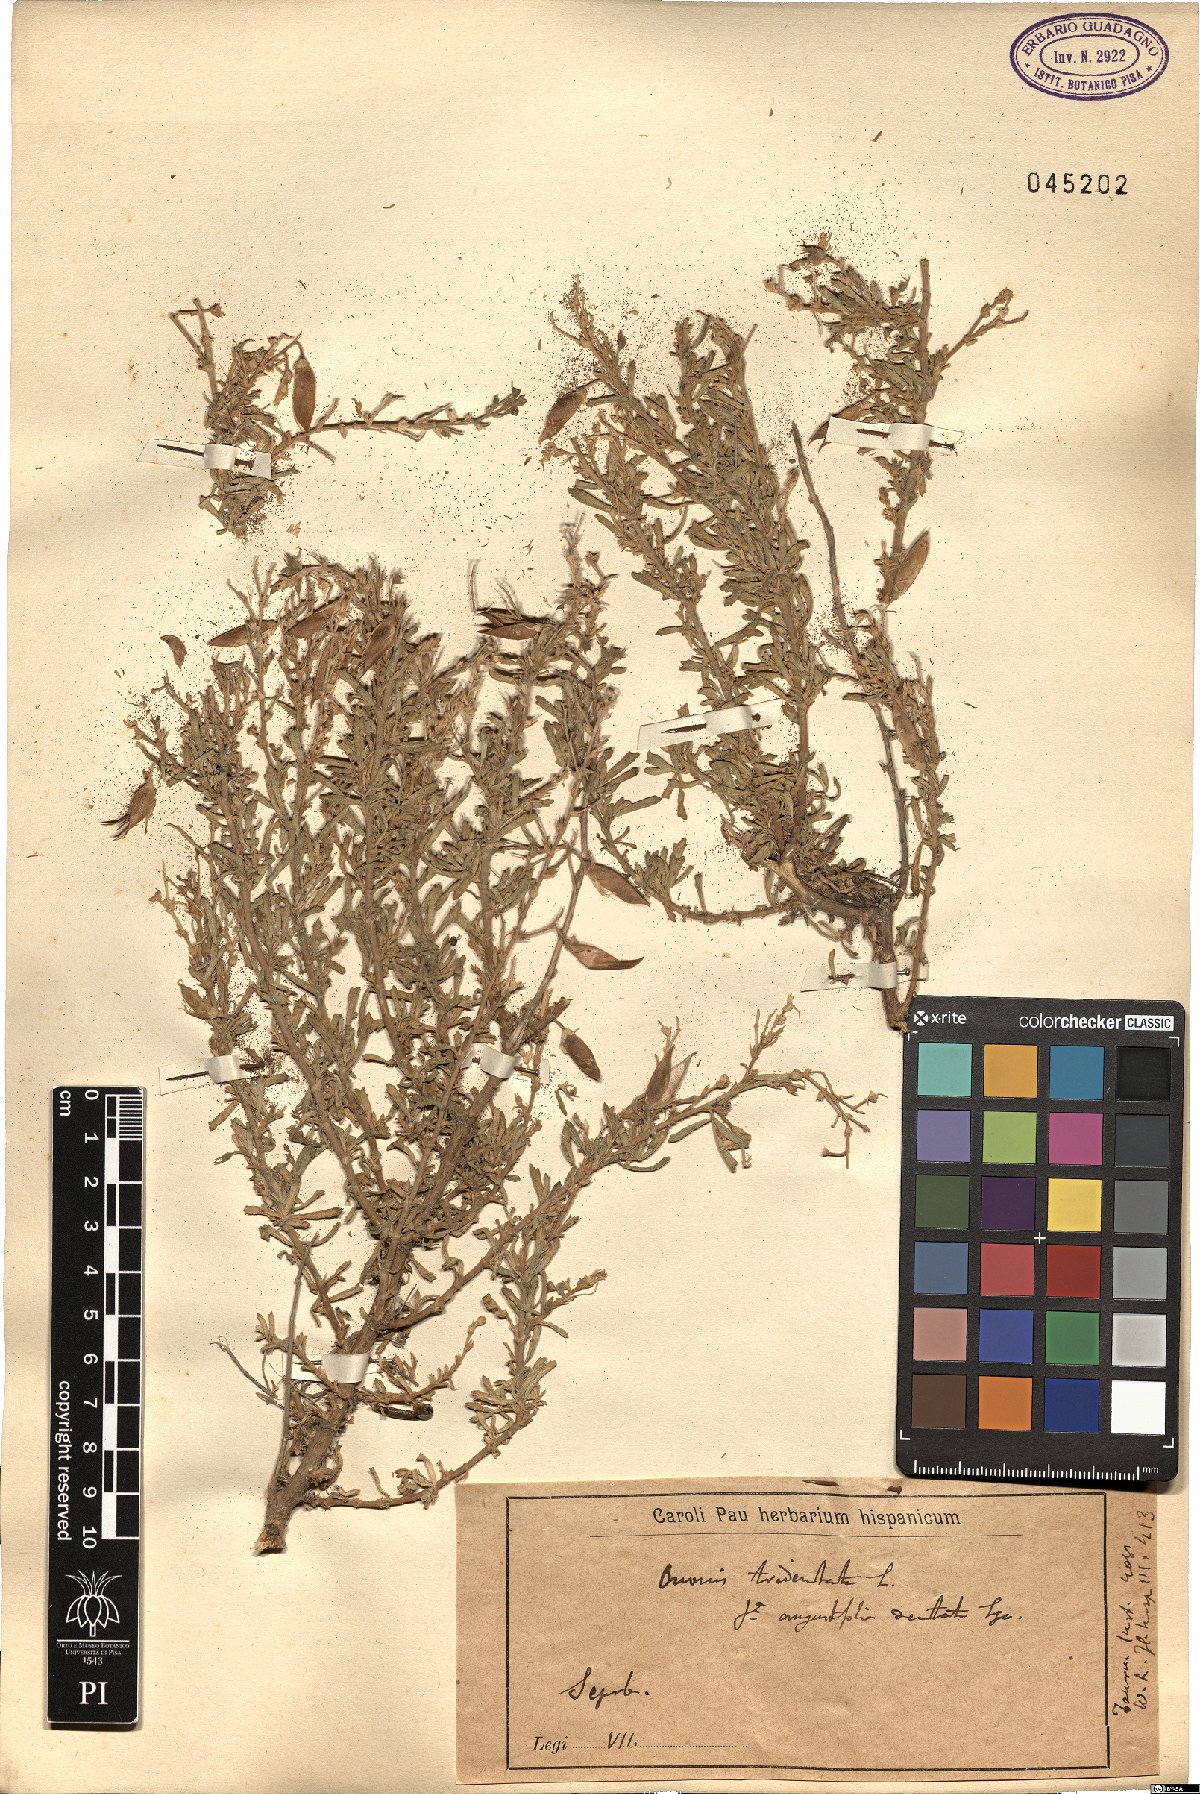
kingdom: Plantae
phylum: Tracheophyta
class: Magnoliopsida
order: Fabales
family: Fabaceae
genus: Ononis
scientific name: Ononis tridentata
